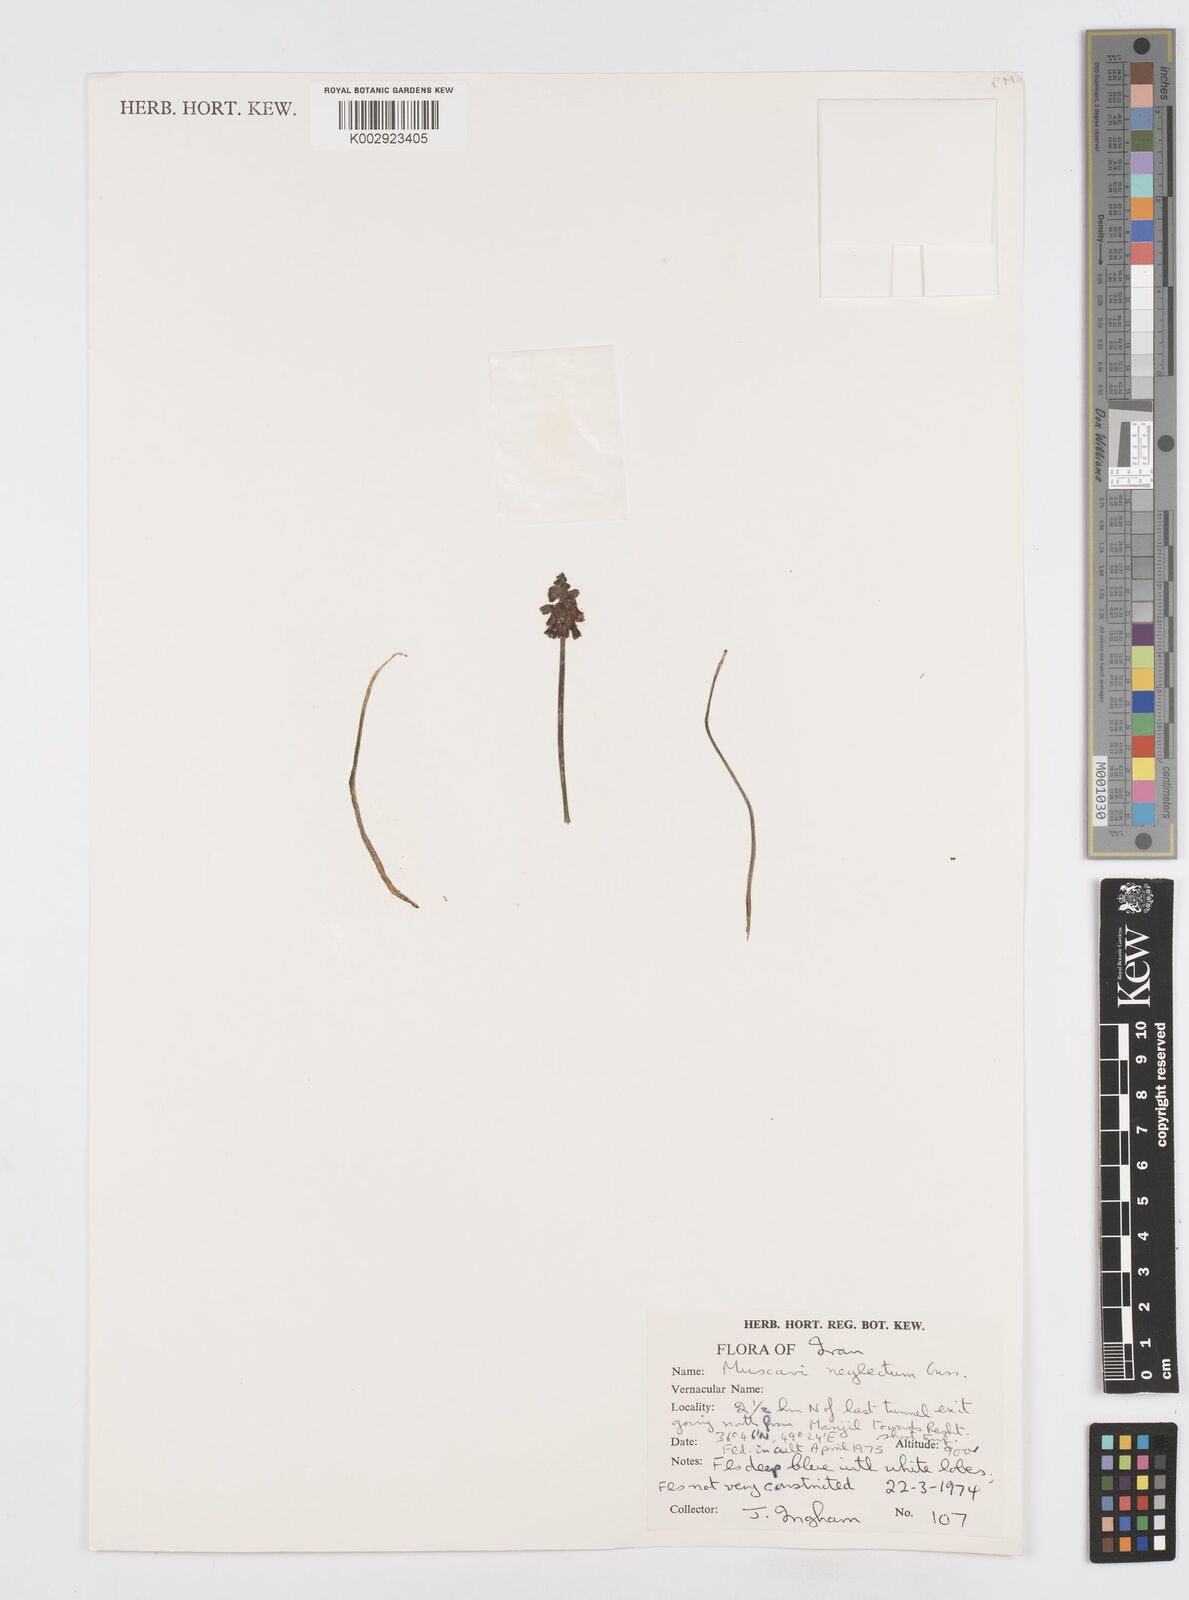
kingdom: Plantae
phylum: Tracheophyta
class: Liliopsida
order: Asparagales
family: Asparagaceae
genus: Muscari
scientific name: Muscari neglectum
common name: Grape-hyacinth
